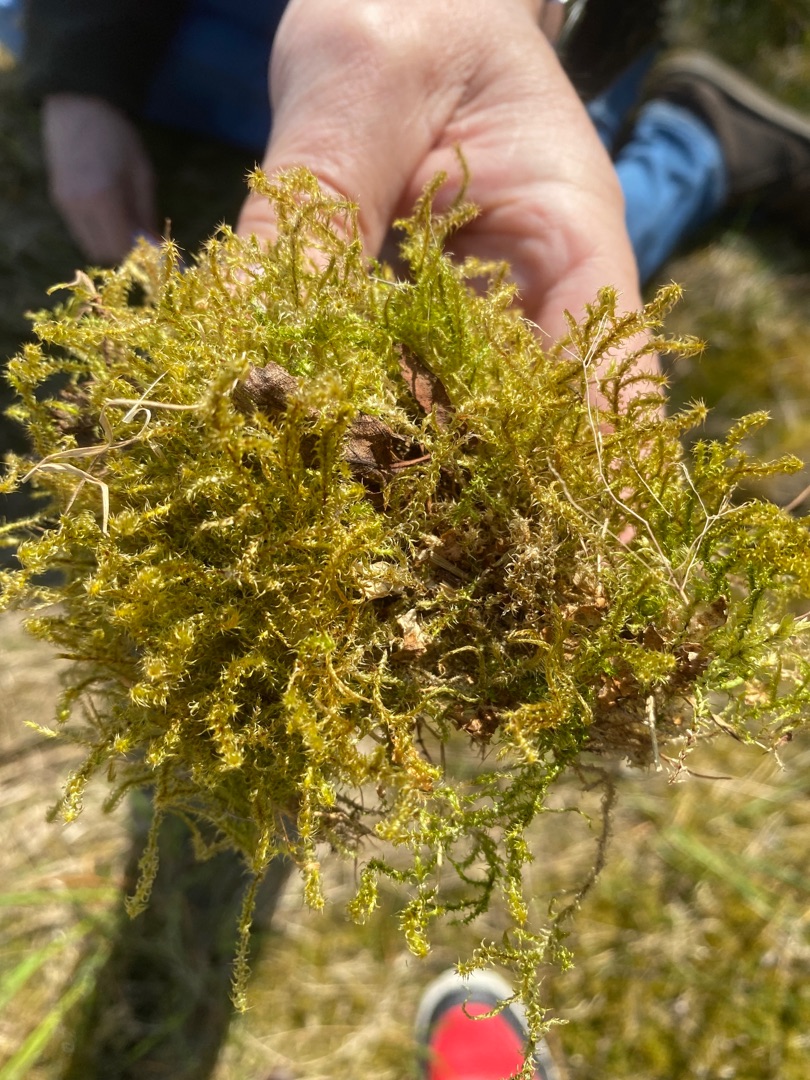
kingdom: Plantae
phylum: Bryophyta
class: Bryopsida
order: Hypnales
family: Hylocomiaceae
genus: Rhytidiadelphus
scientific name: Rhytidiadelphus squarrosus
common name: Plæne-kransemos
